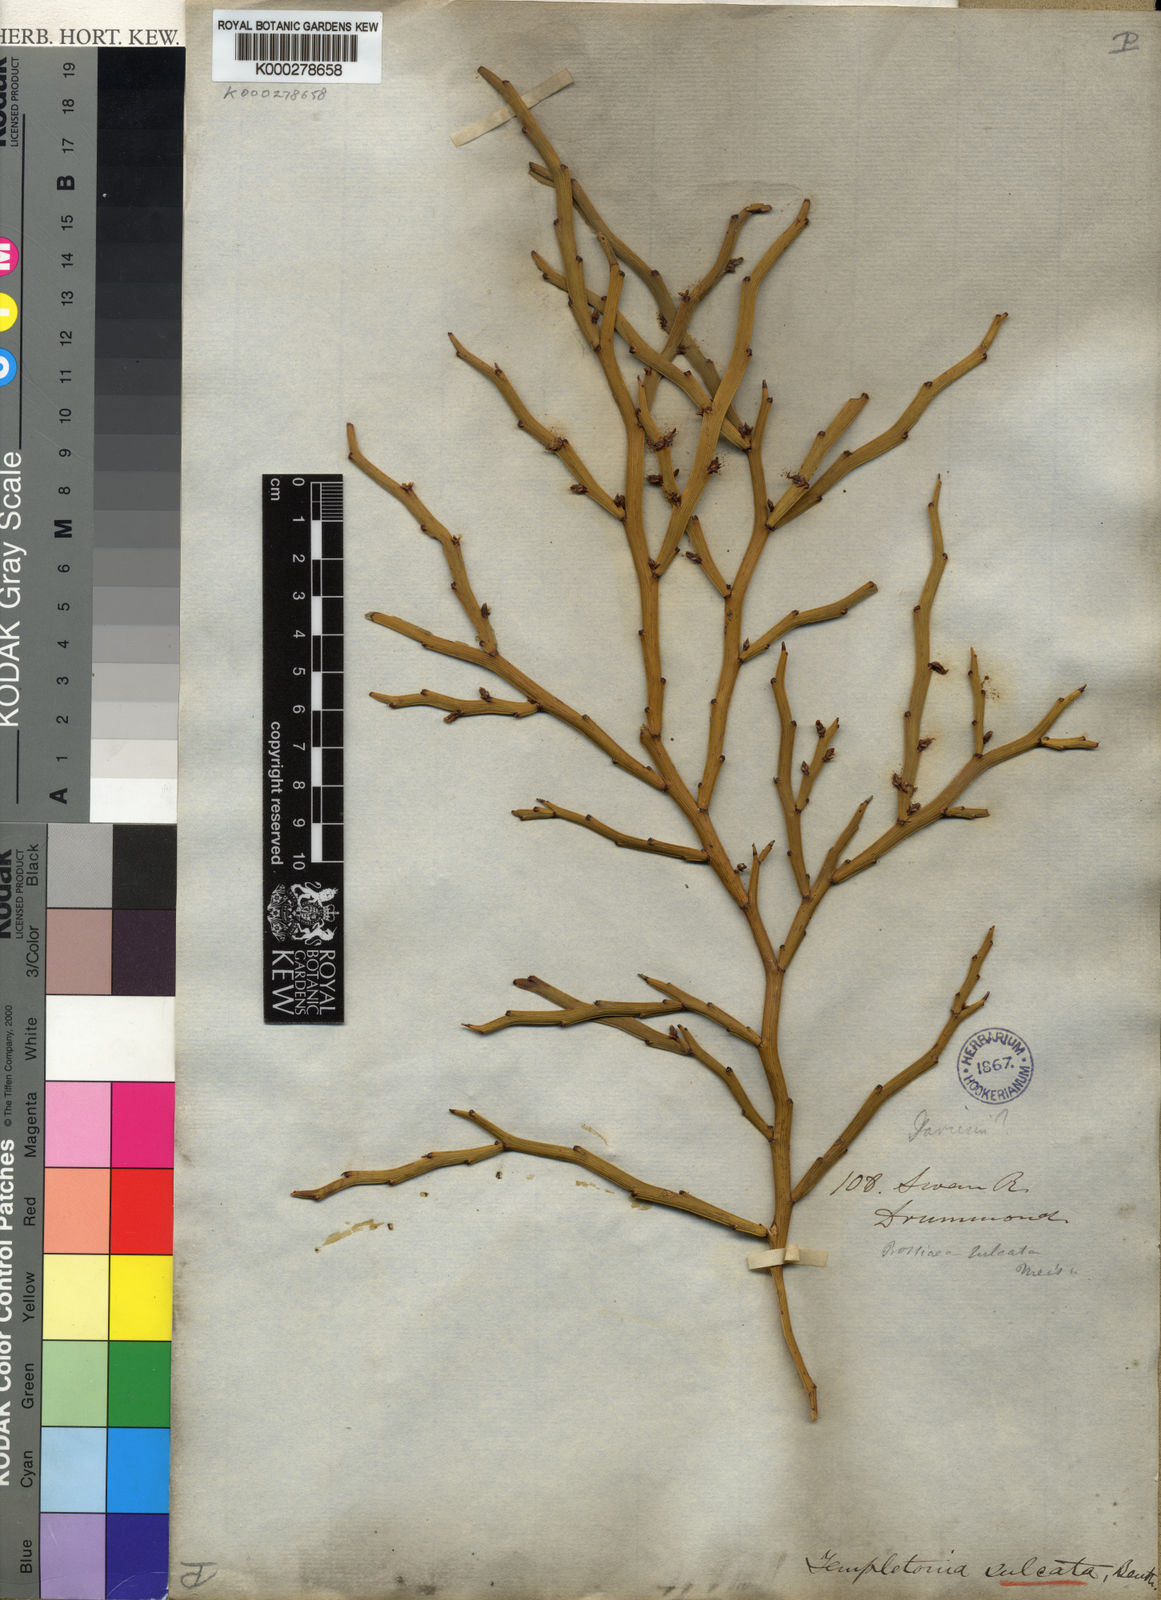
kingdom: Plantae
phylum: Tracheophyta
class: Magnoliopsida
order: Fabales
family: Fabaceae
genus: Templetonia
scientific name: Templetonia sulcata
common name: Flat mallee-pea
